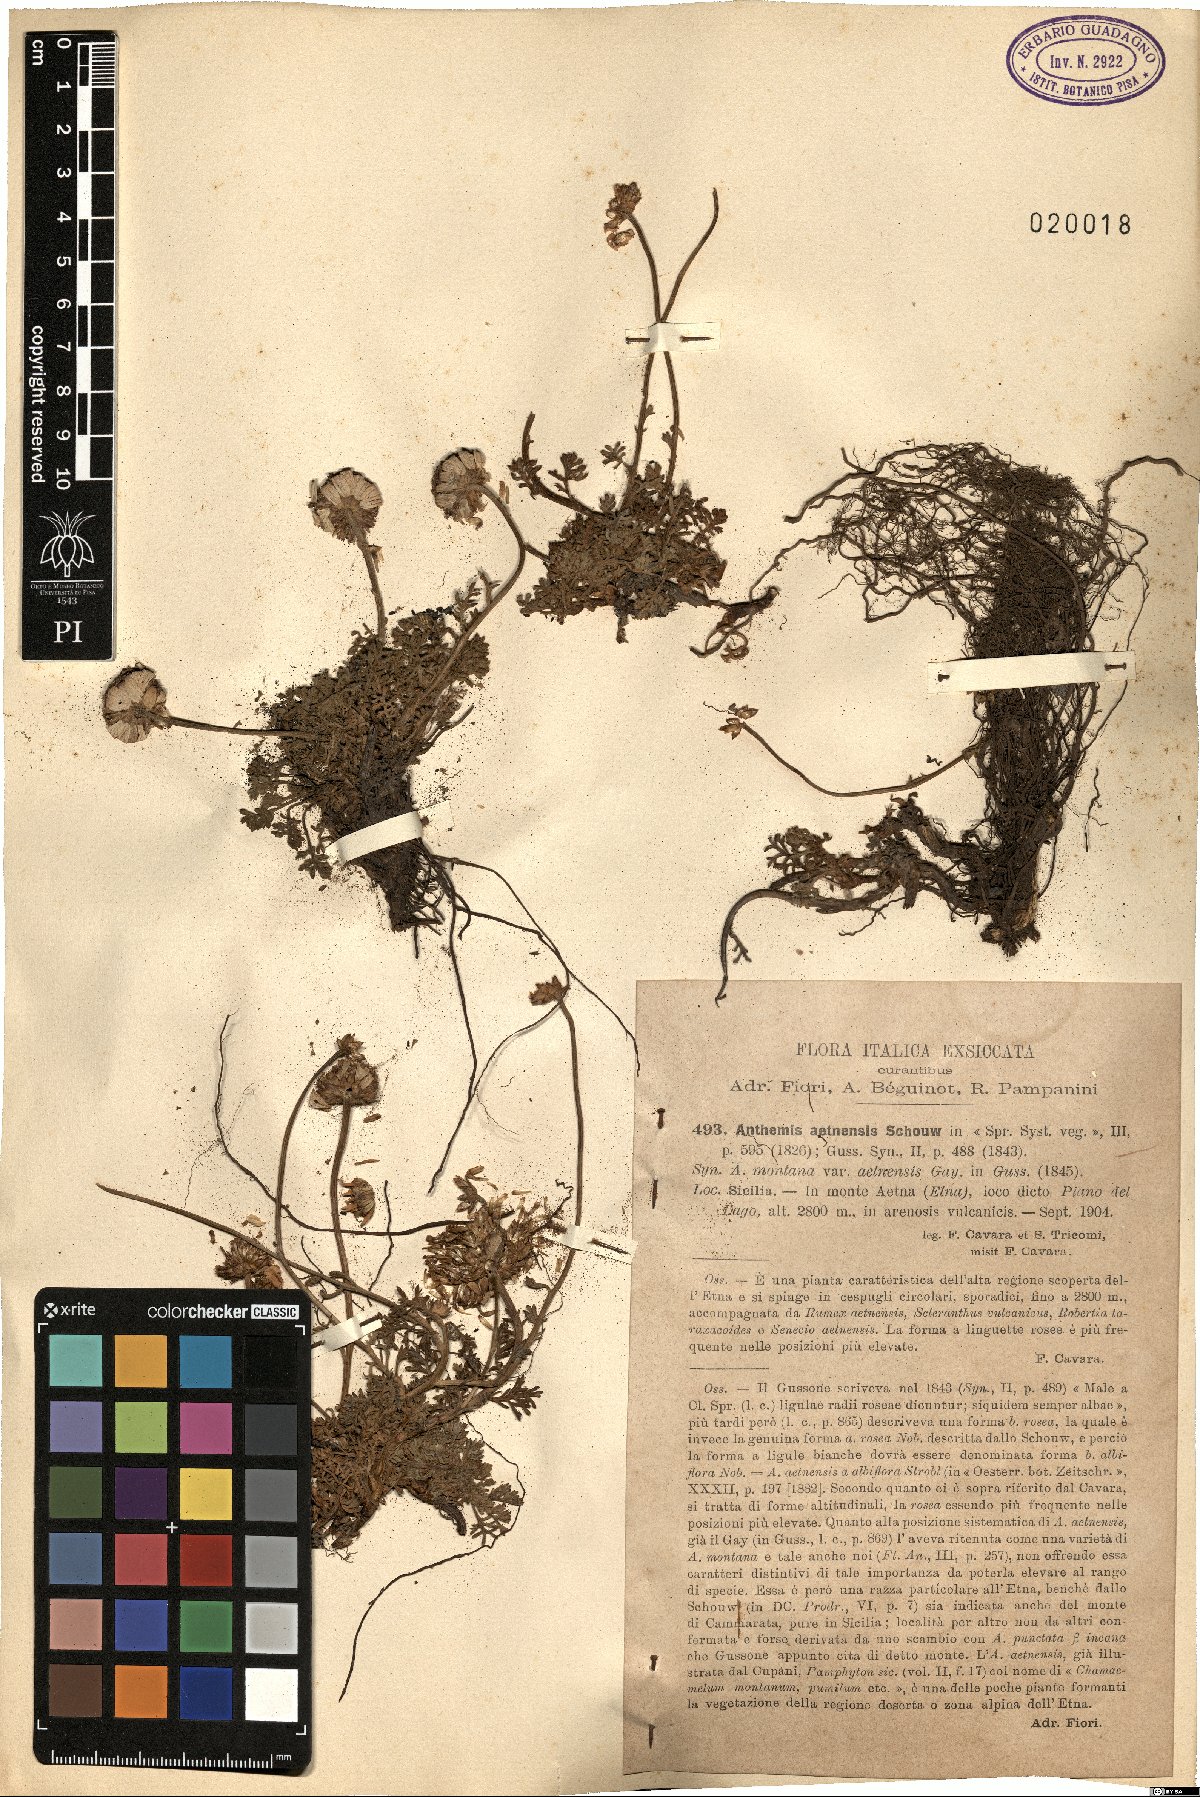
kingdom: Plantae
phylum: Tracheophyta
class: Magnoliopsida
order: Asterales
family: Asteraceae
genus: Anthemis
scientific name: Anthemis aetnensis
